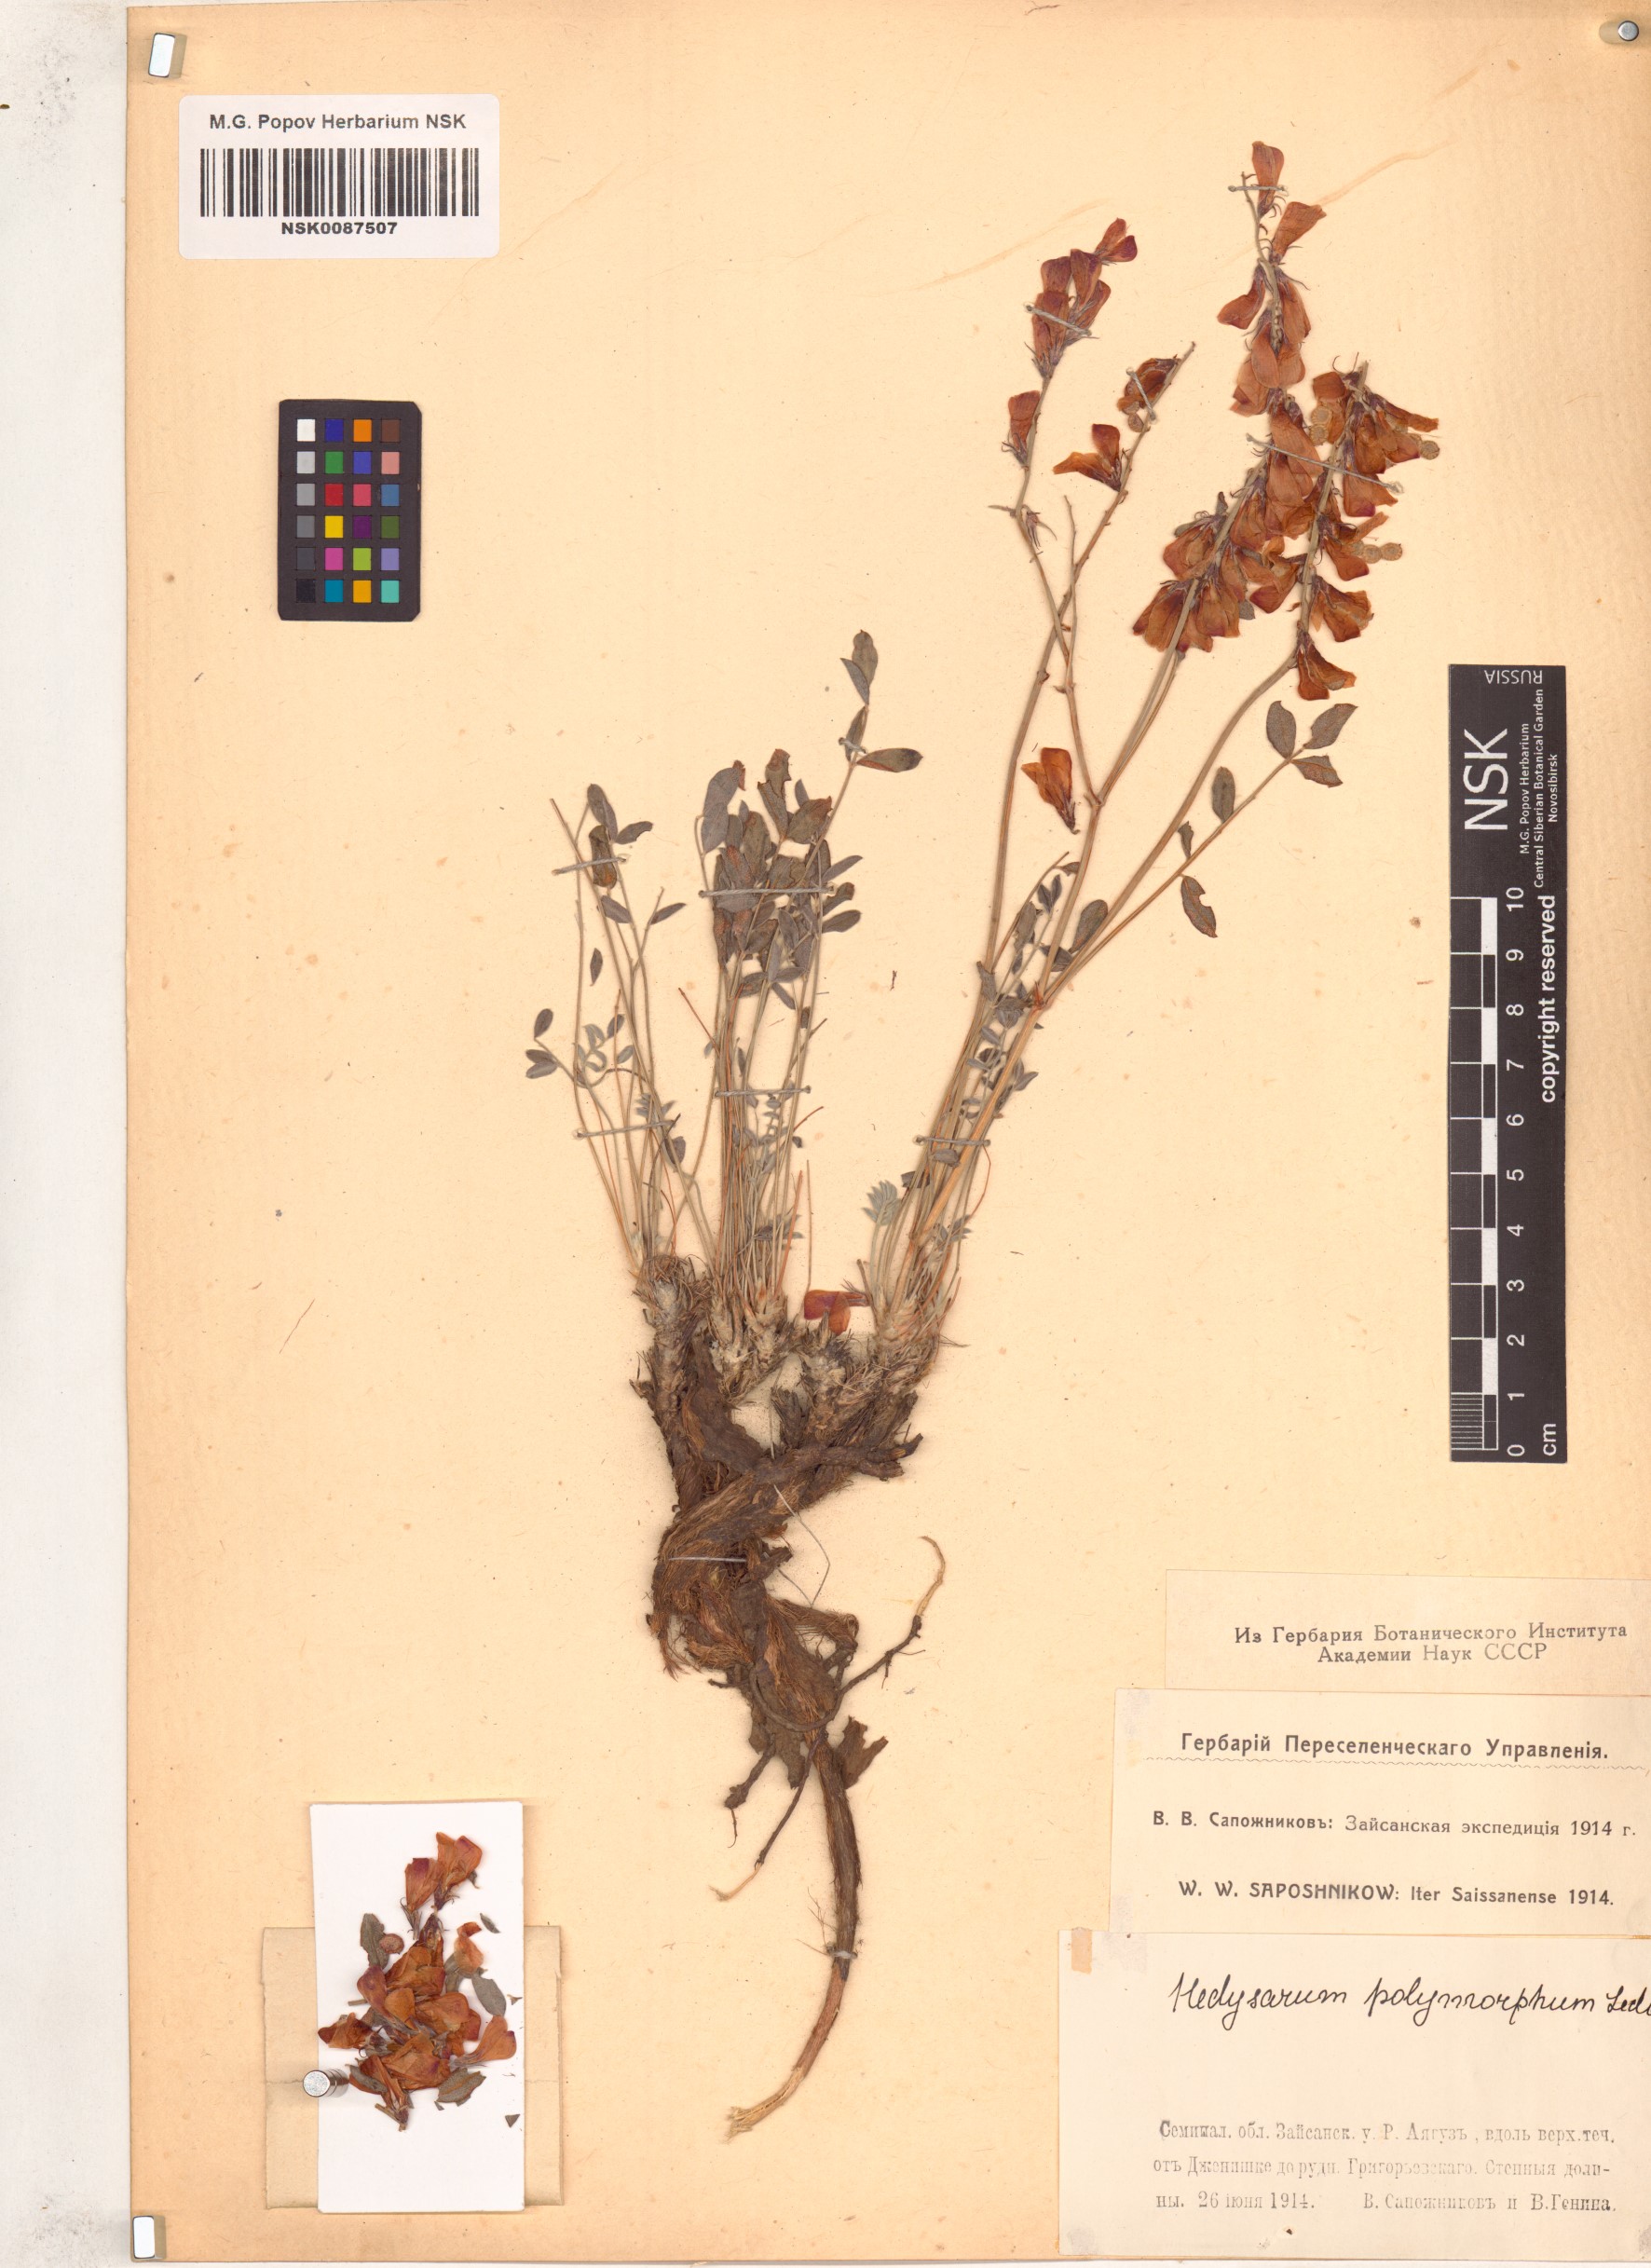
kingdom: Plantae
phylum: Tracheophyta
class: Magnoliopsida
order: Fabales
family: Fabaceae
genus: Hedysarum
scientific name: Hedysarum gmelinii
